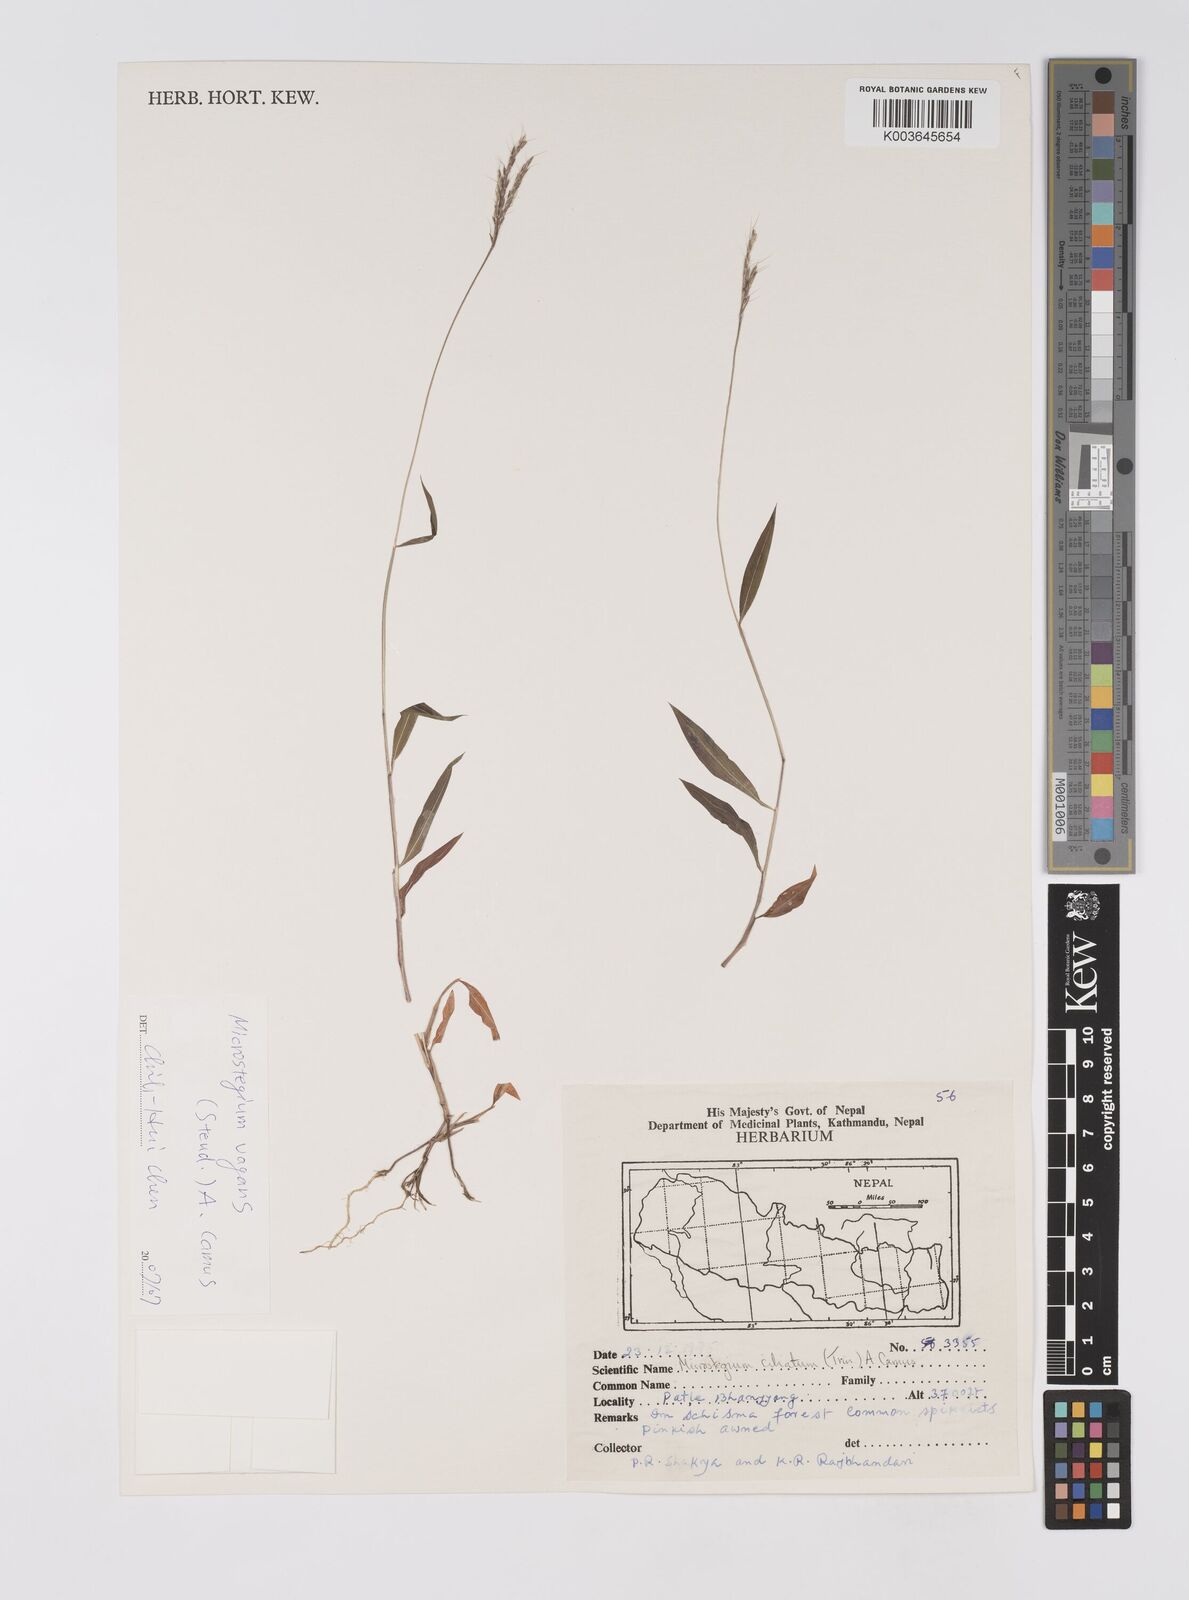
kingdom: Plantae
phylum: Tracheophyta
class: Liliopsida
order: Poales
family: Poaceae
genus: Microstegium
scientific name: Microstegium fasciculatum
